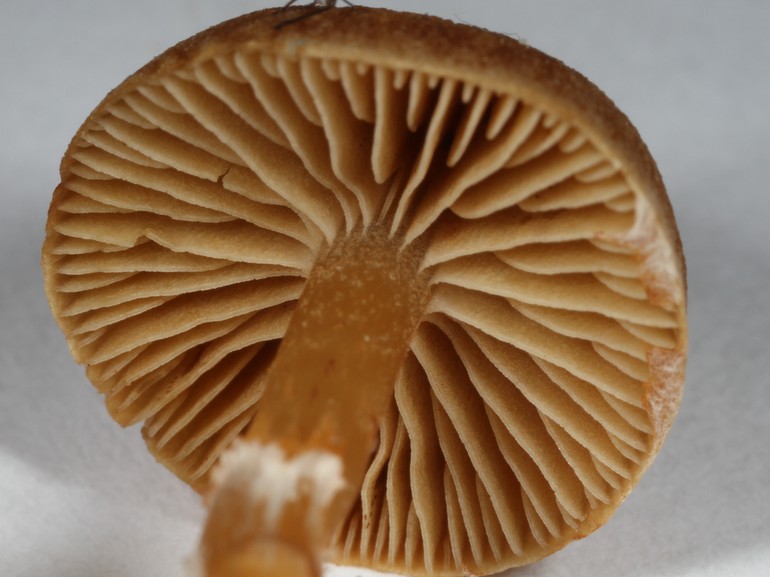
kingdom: Fungi
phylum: Basidiomycota
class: Agaricomycetes
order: Agaricales
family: Hymenogastraceae
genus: Galerina
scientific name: Galerina paludosa
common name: mose-hjelmhat
